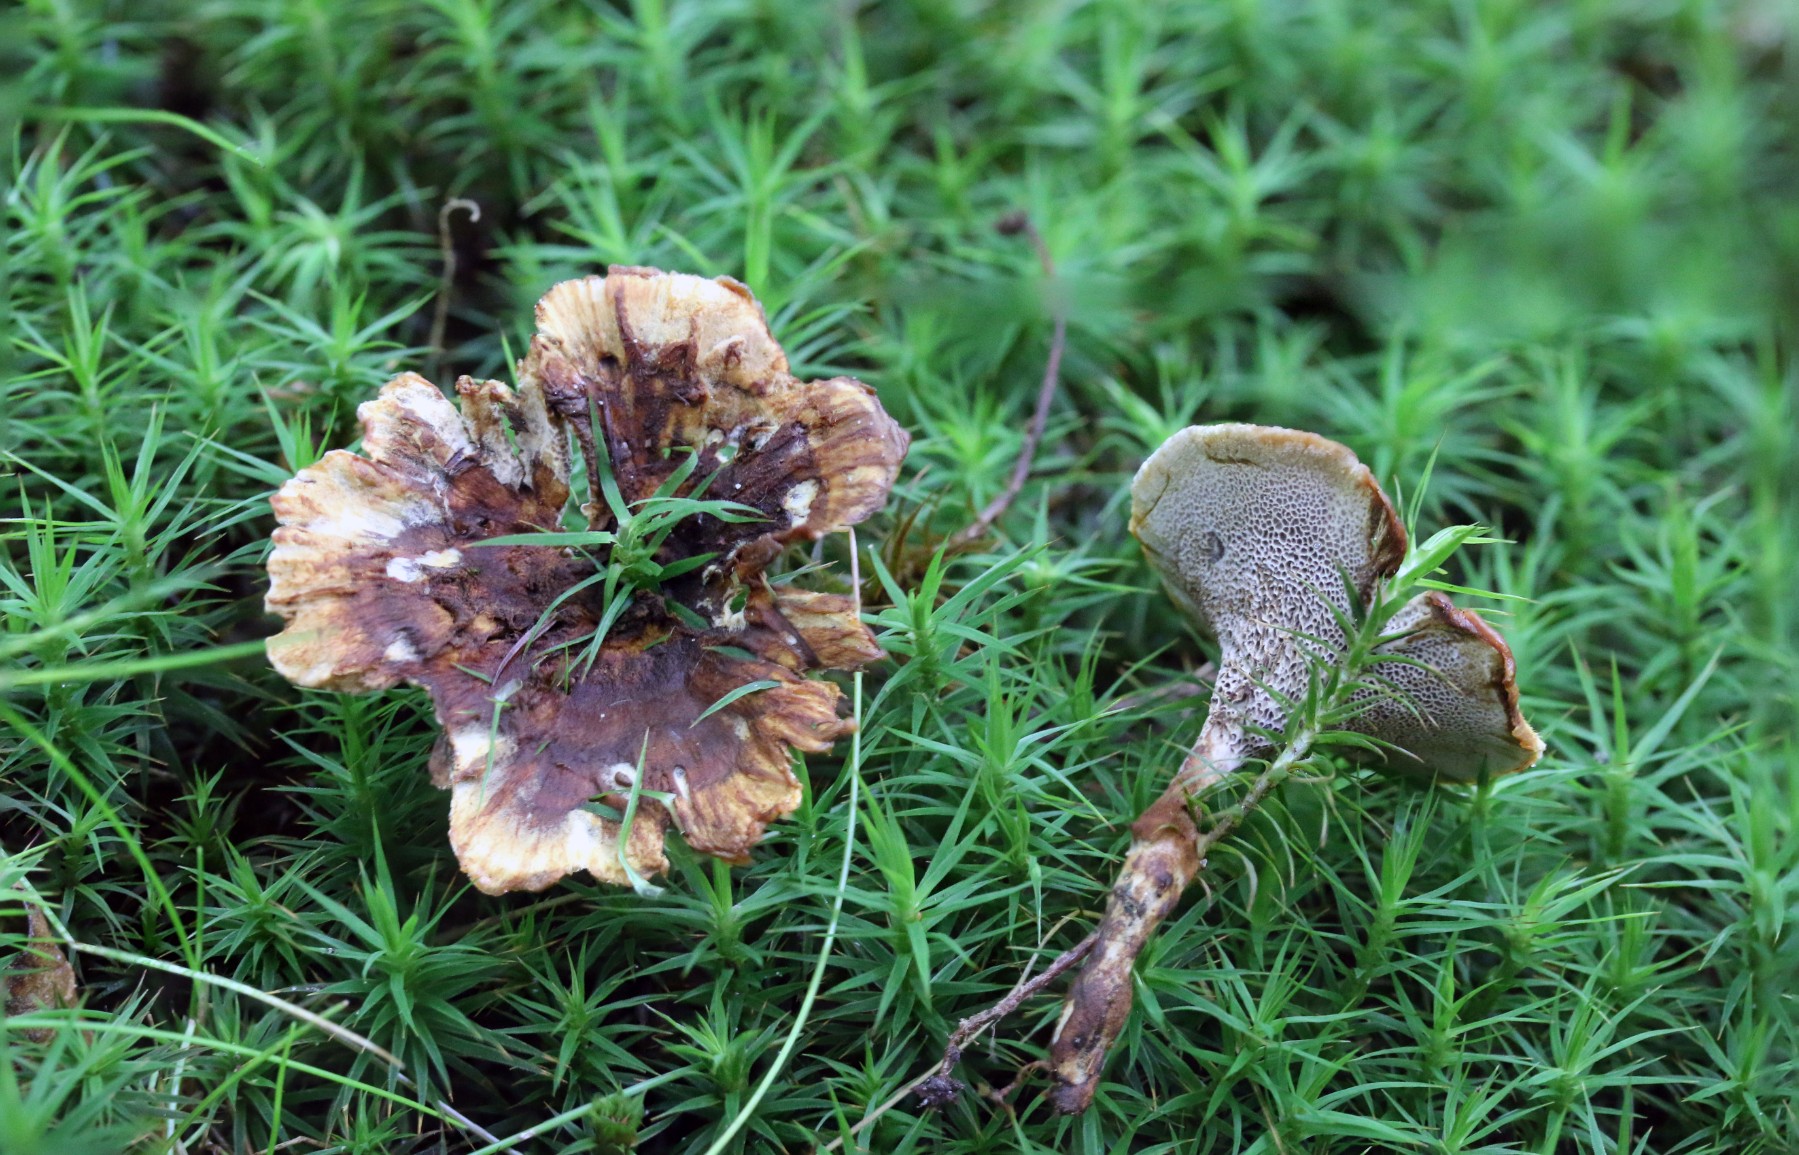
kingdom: Fungi
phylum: Basidiomycota
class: Agaricomycetes
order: Hymenochaetales
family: Hymenochaetaceae
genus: Coltricia
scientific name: Coltricia
